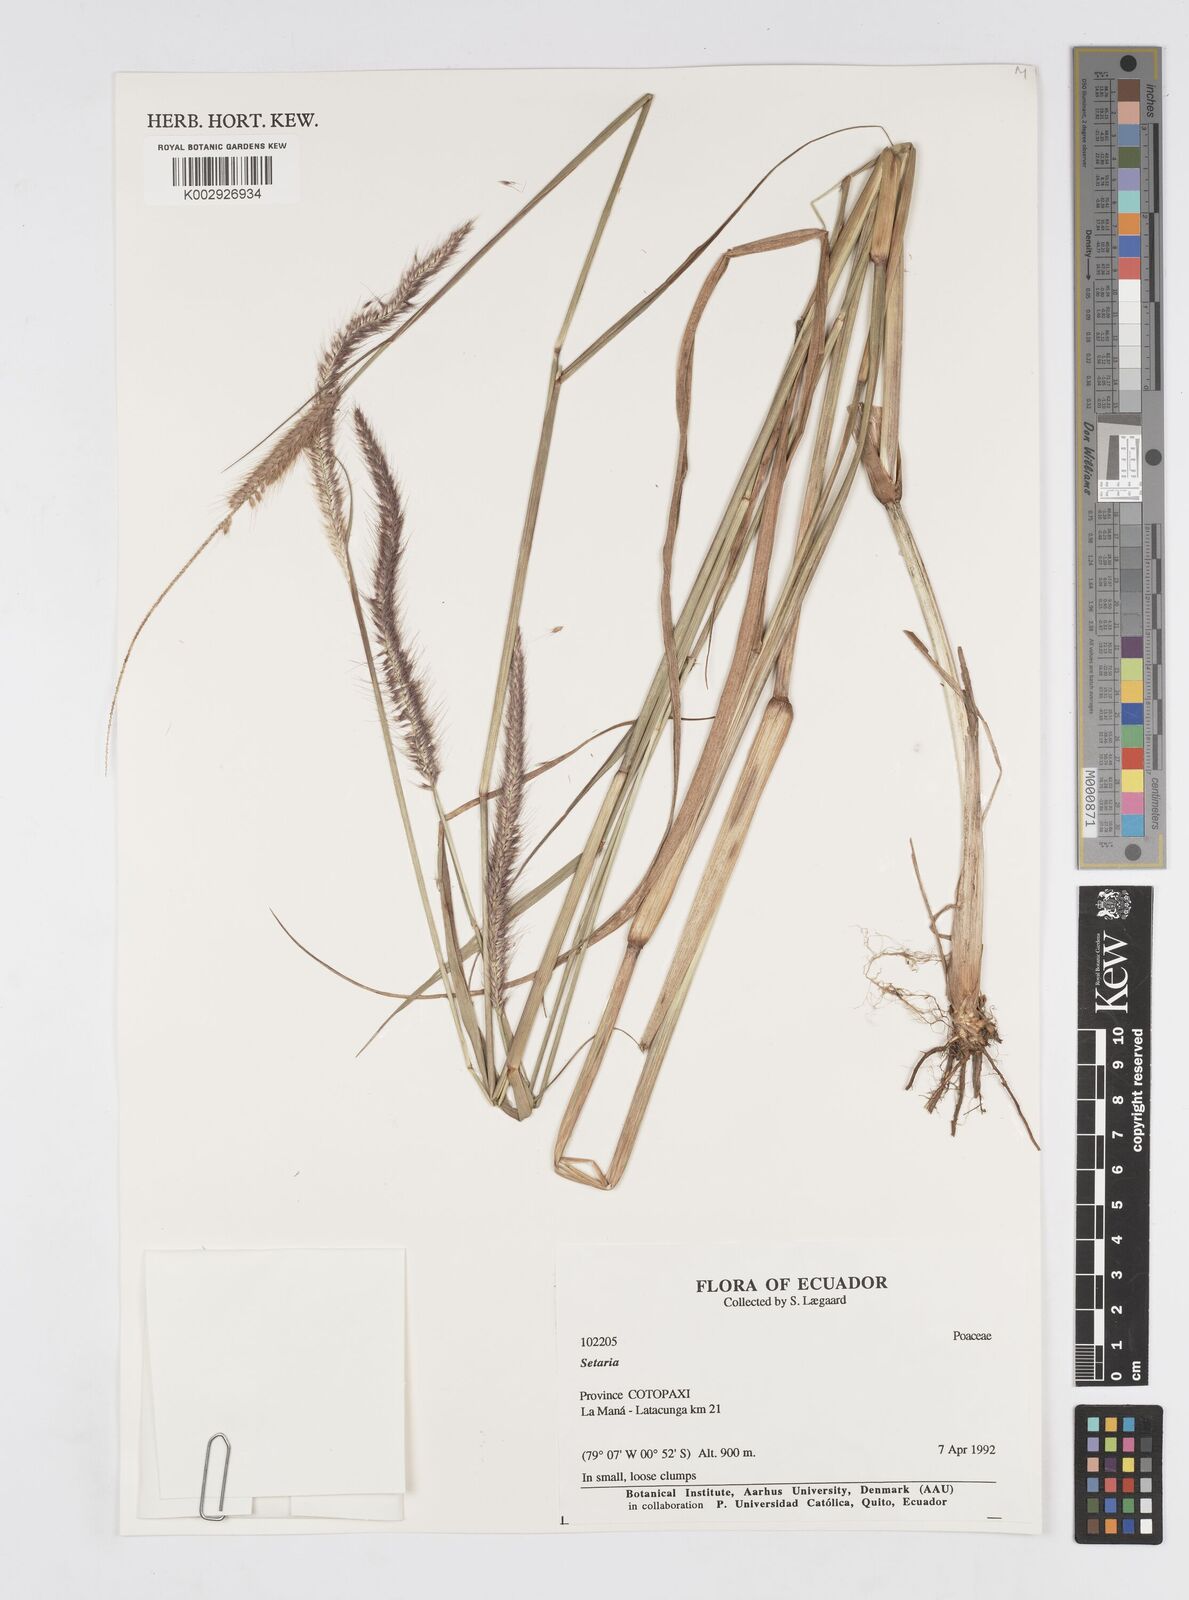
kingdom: Plantae
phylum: Tracheophyta
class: Liliopsida
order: Poales
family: Poaceae
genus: Setaria
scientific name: Setaria parviflora
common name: Knotroot bristle-grass
